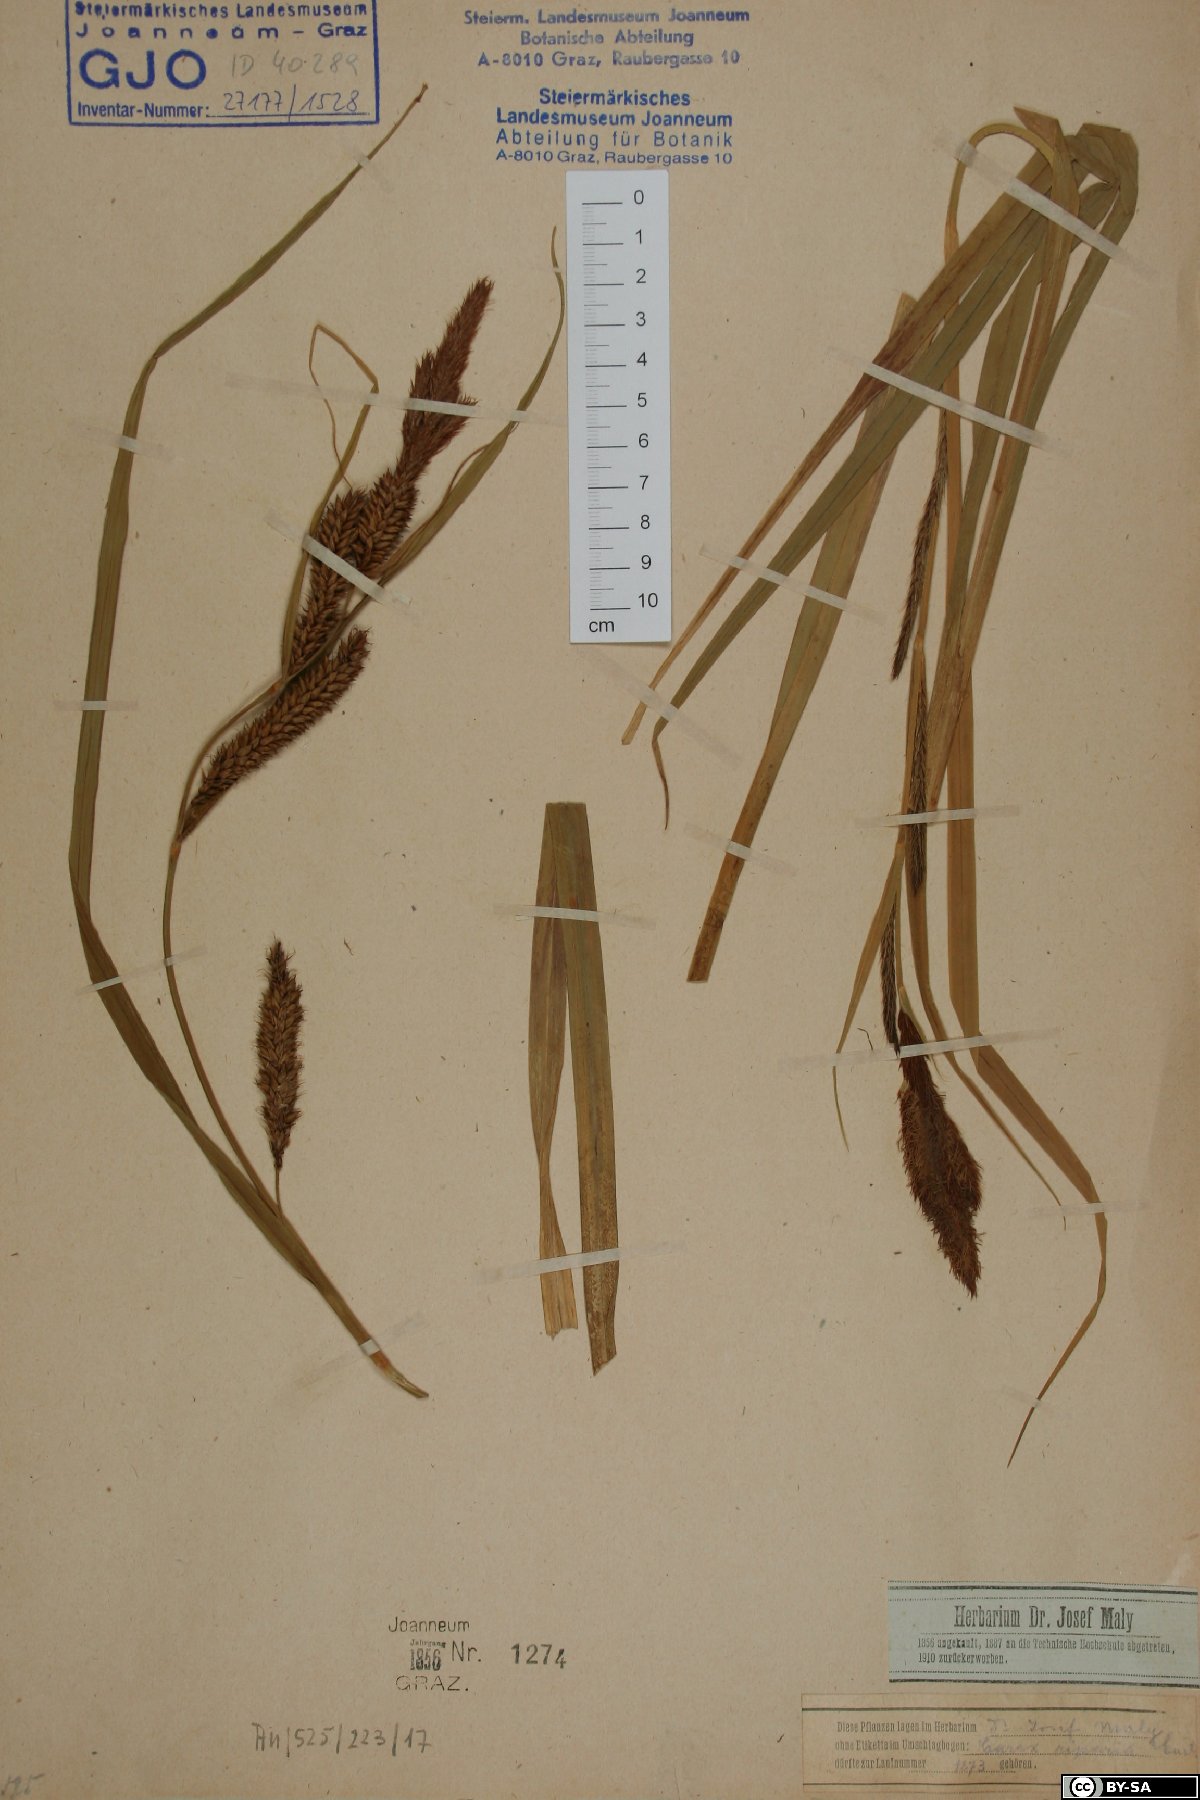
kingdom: Plantae
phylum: Tracheophyta
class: Liliopsida
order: Poales
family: Cyperaceae
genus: Carex
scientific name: Carex riparia
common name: Greater pond-sedge
